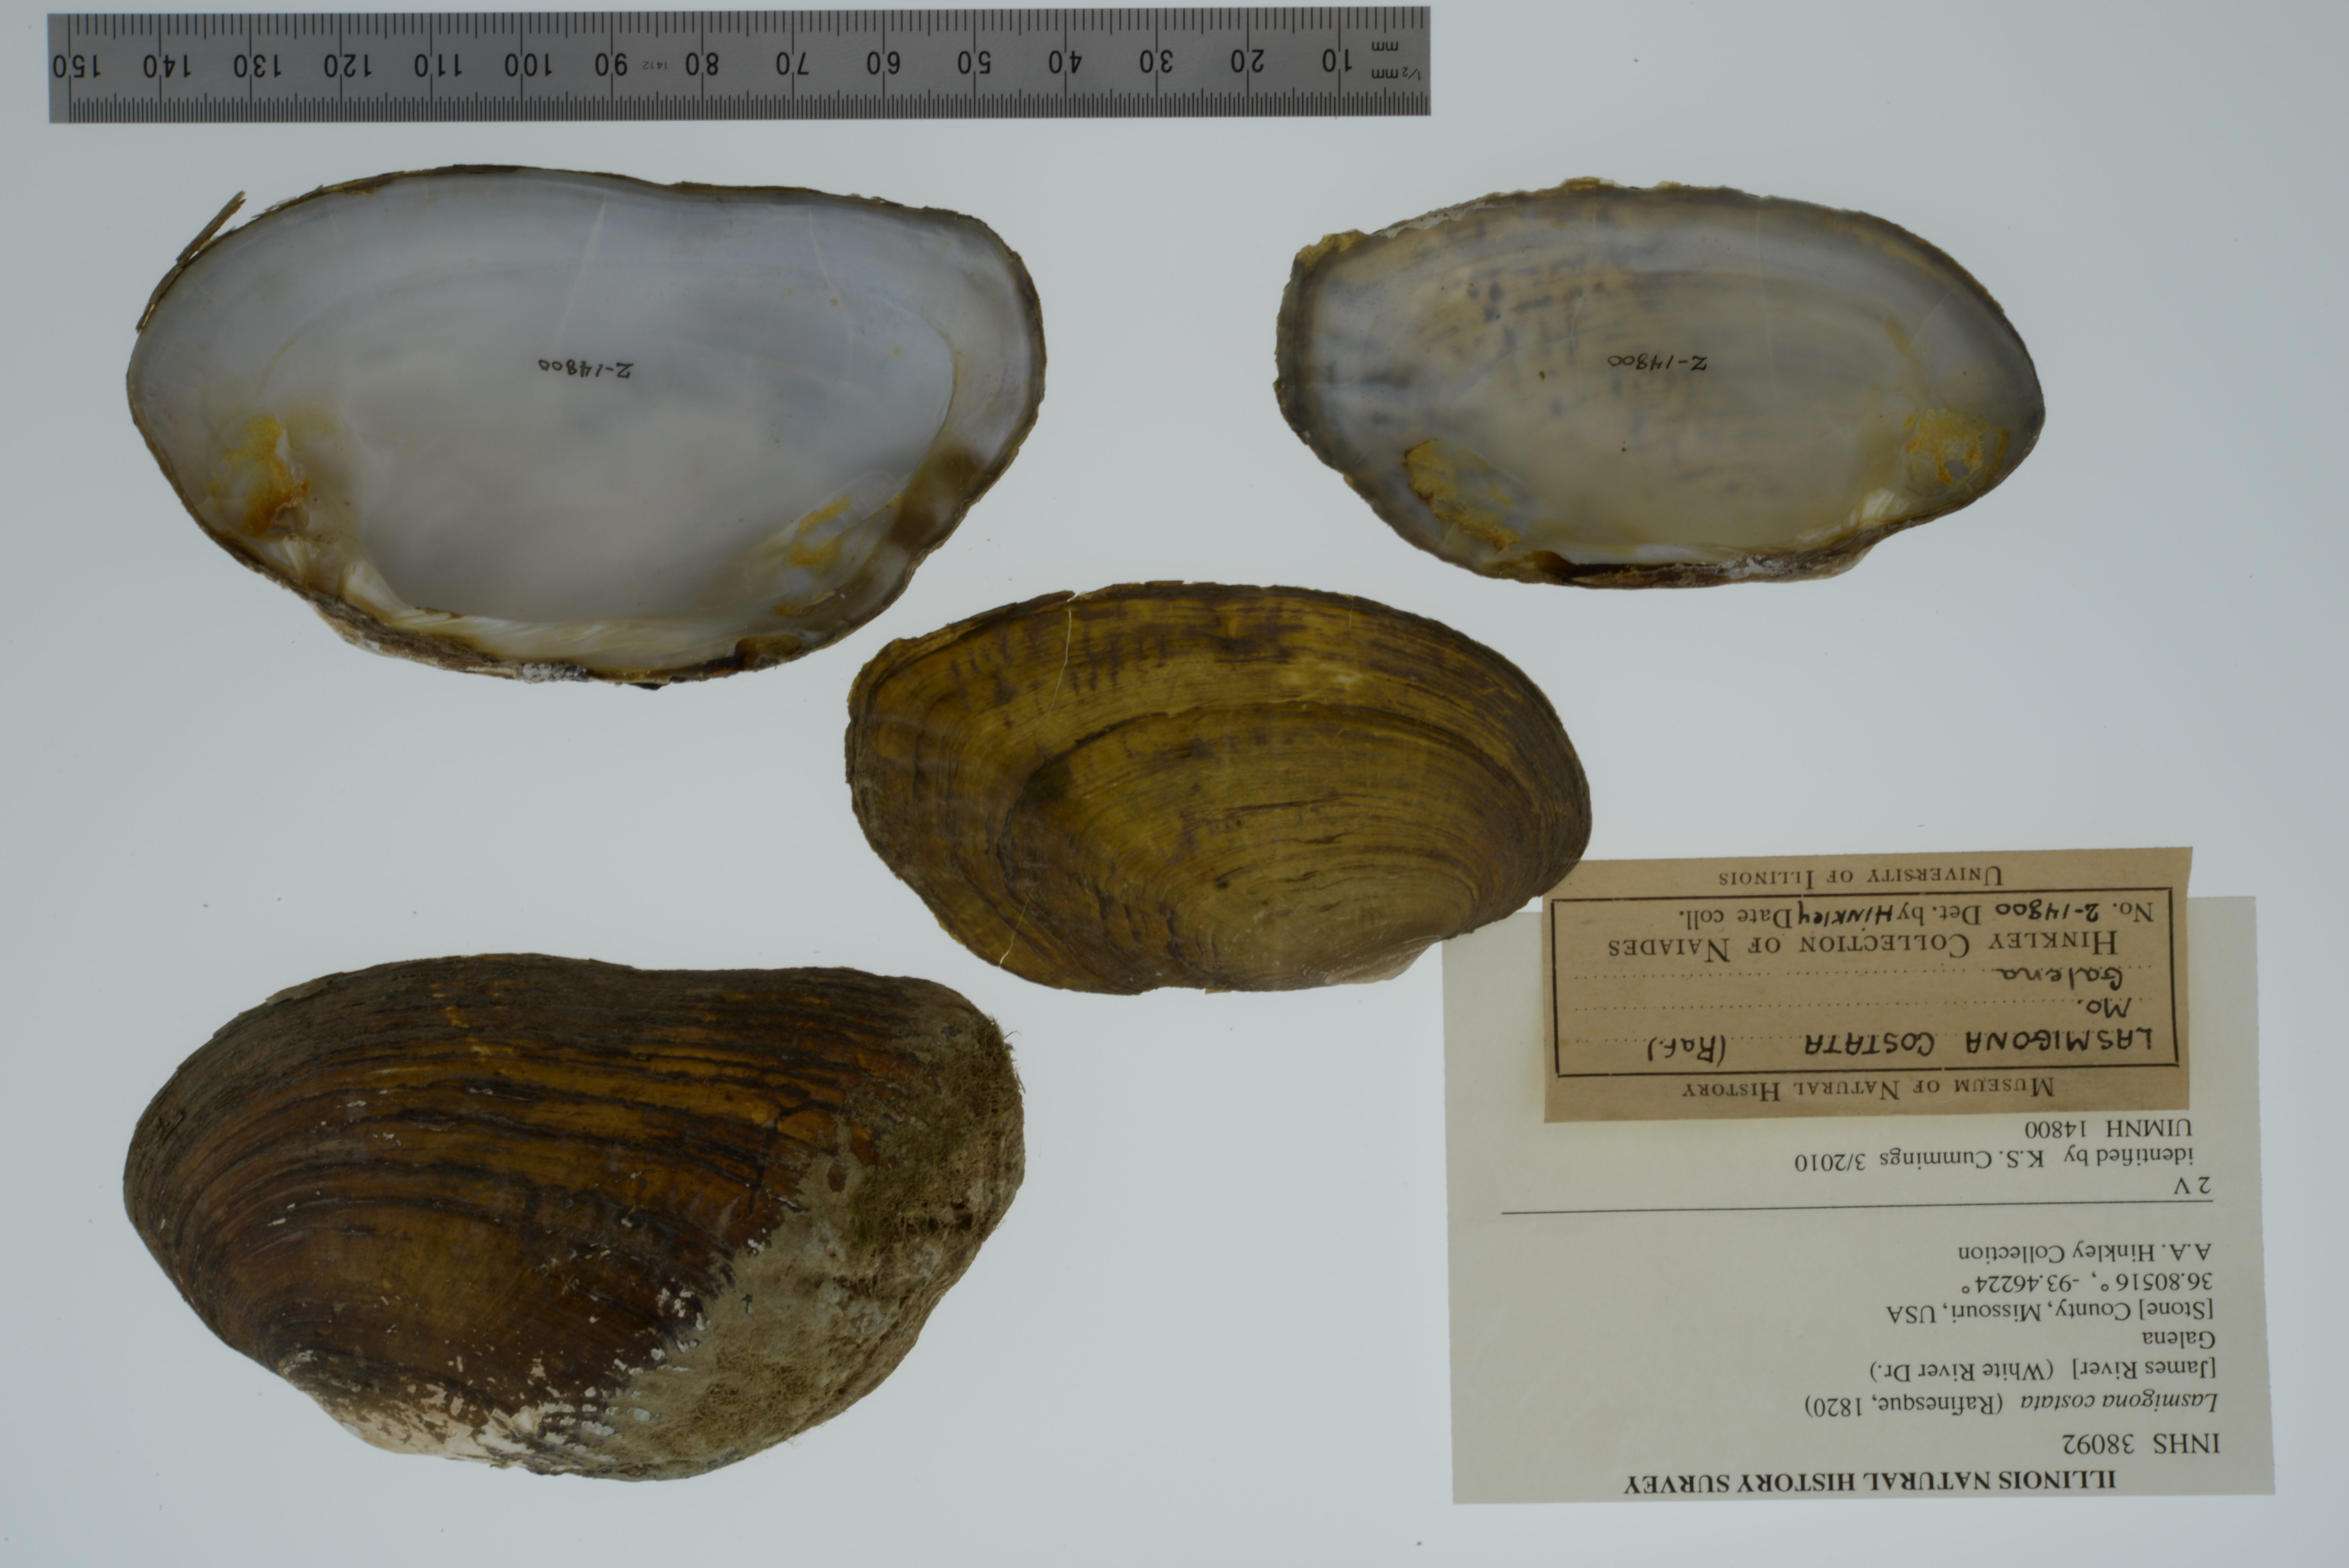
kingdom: Animalia
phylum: Mollusca
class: Bivalvia
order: Unionida
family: Unionidae
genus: Lasmigona
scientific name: Lasmigona costata
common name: Flutedshell
